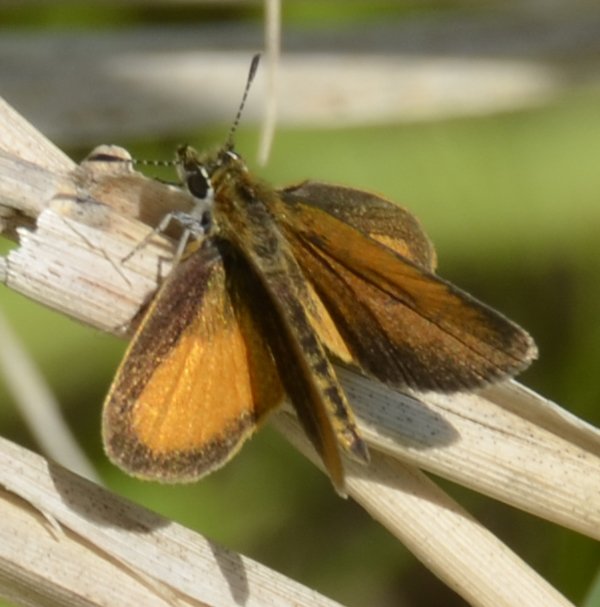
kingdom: Animalia
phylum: Arthropoda
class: Insecta
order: Lepidoptera
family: Hesperiidae
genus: Ancyloxypha
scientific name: Ancyloxypha numitor
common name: Least Skipper
